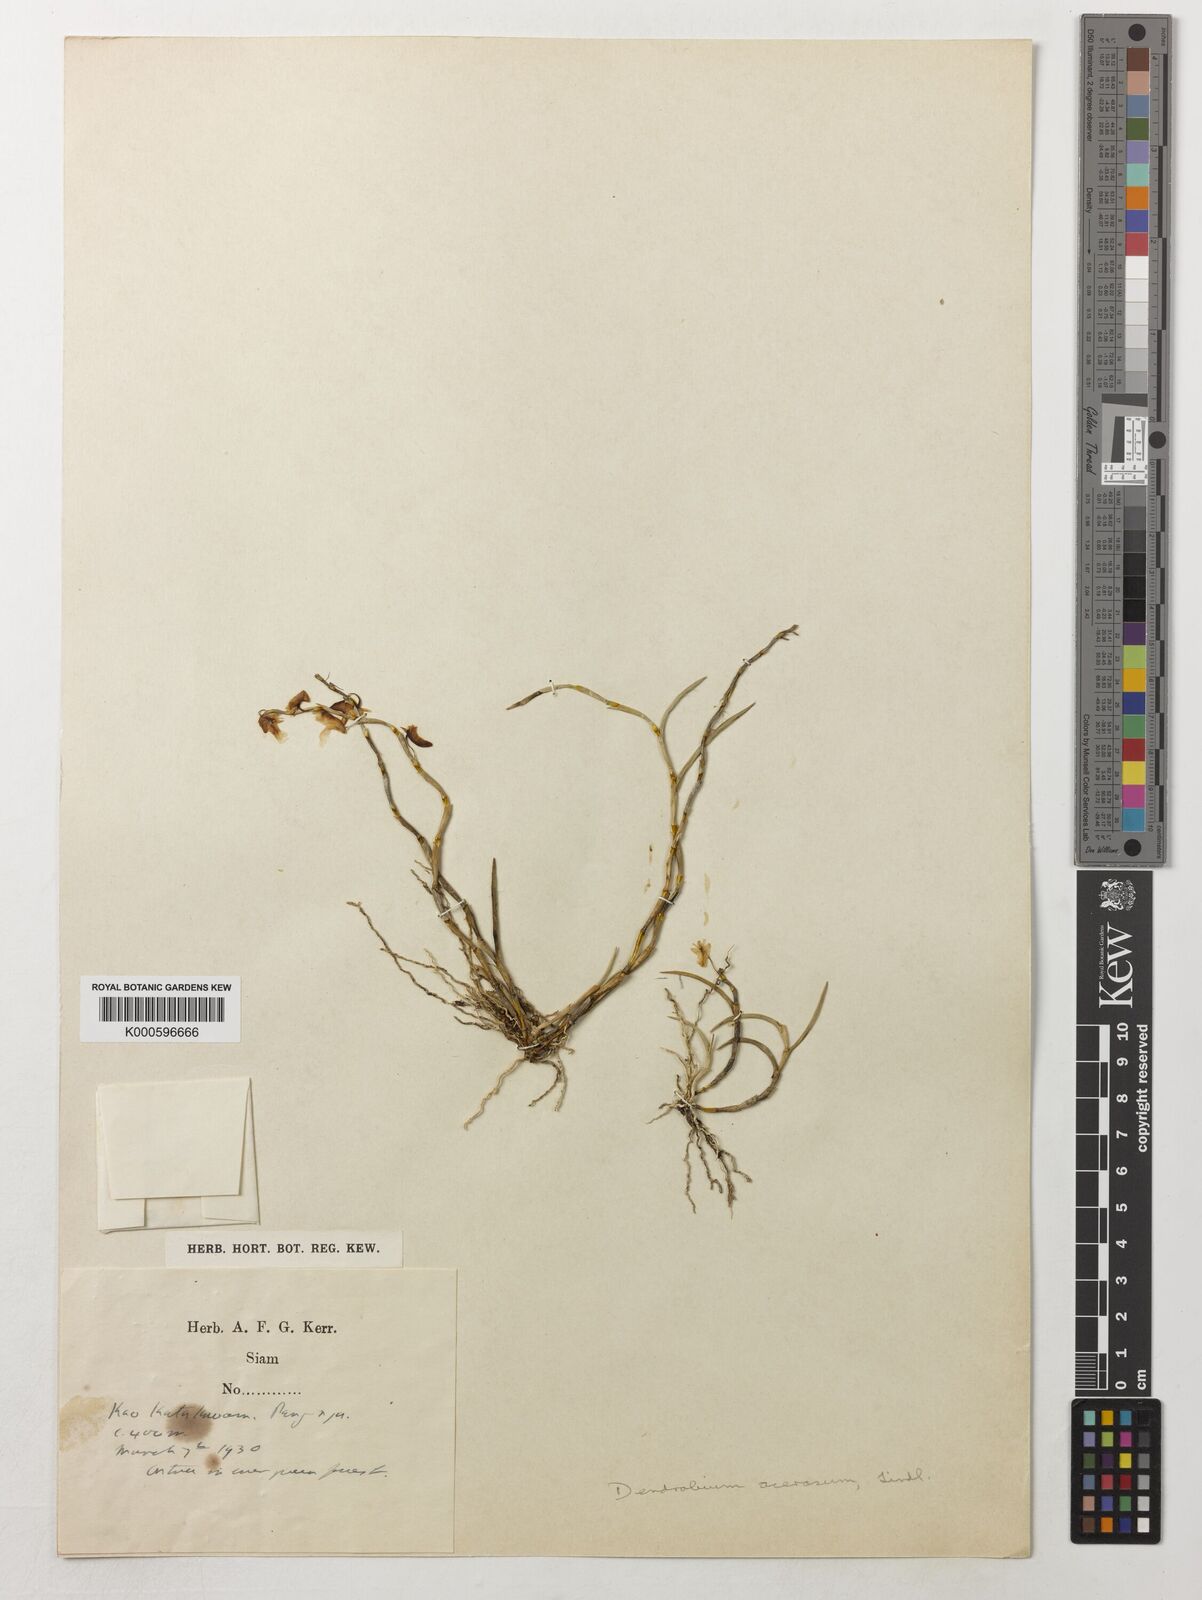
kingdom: Plantae
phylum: Tracheophyta
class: Liliopsida
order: Asparagales
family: Orchidaceae
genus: Dendrobium
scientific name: Dendrobium acerosum
